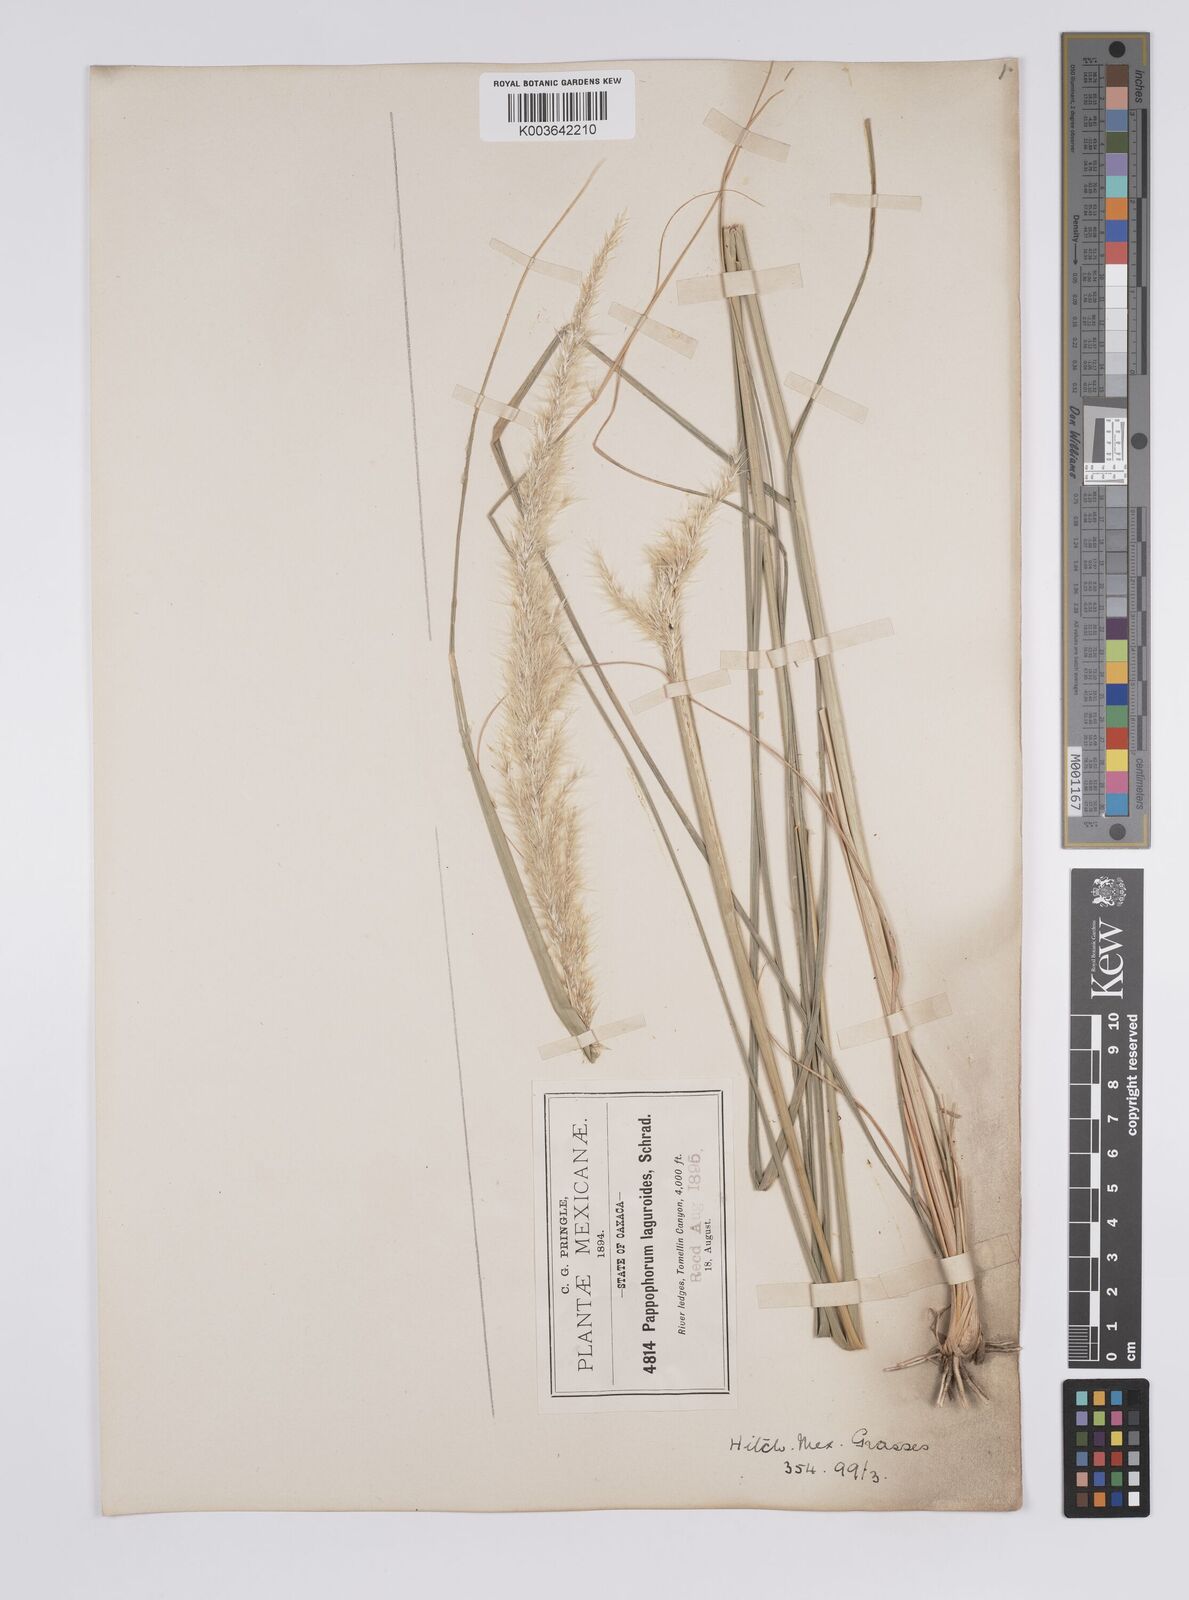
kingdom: Plantae
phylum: Tracheophyta
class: Liliopsida
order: Poales
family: Poaceae
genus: Pappophorum
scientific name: Pappophorum pappiferum
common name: Crabgrass
